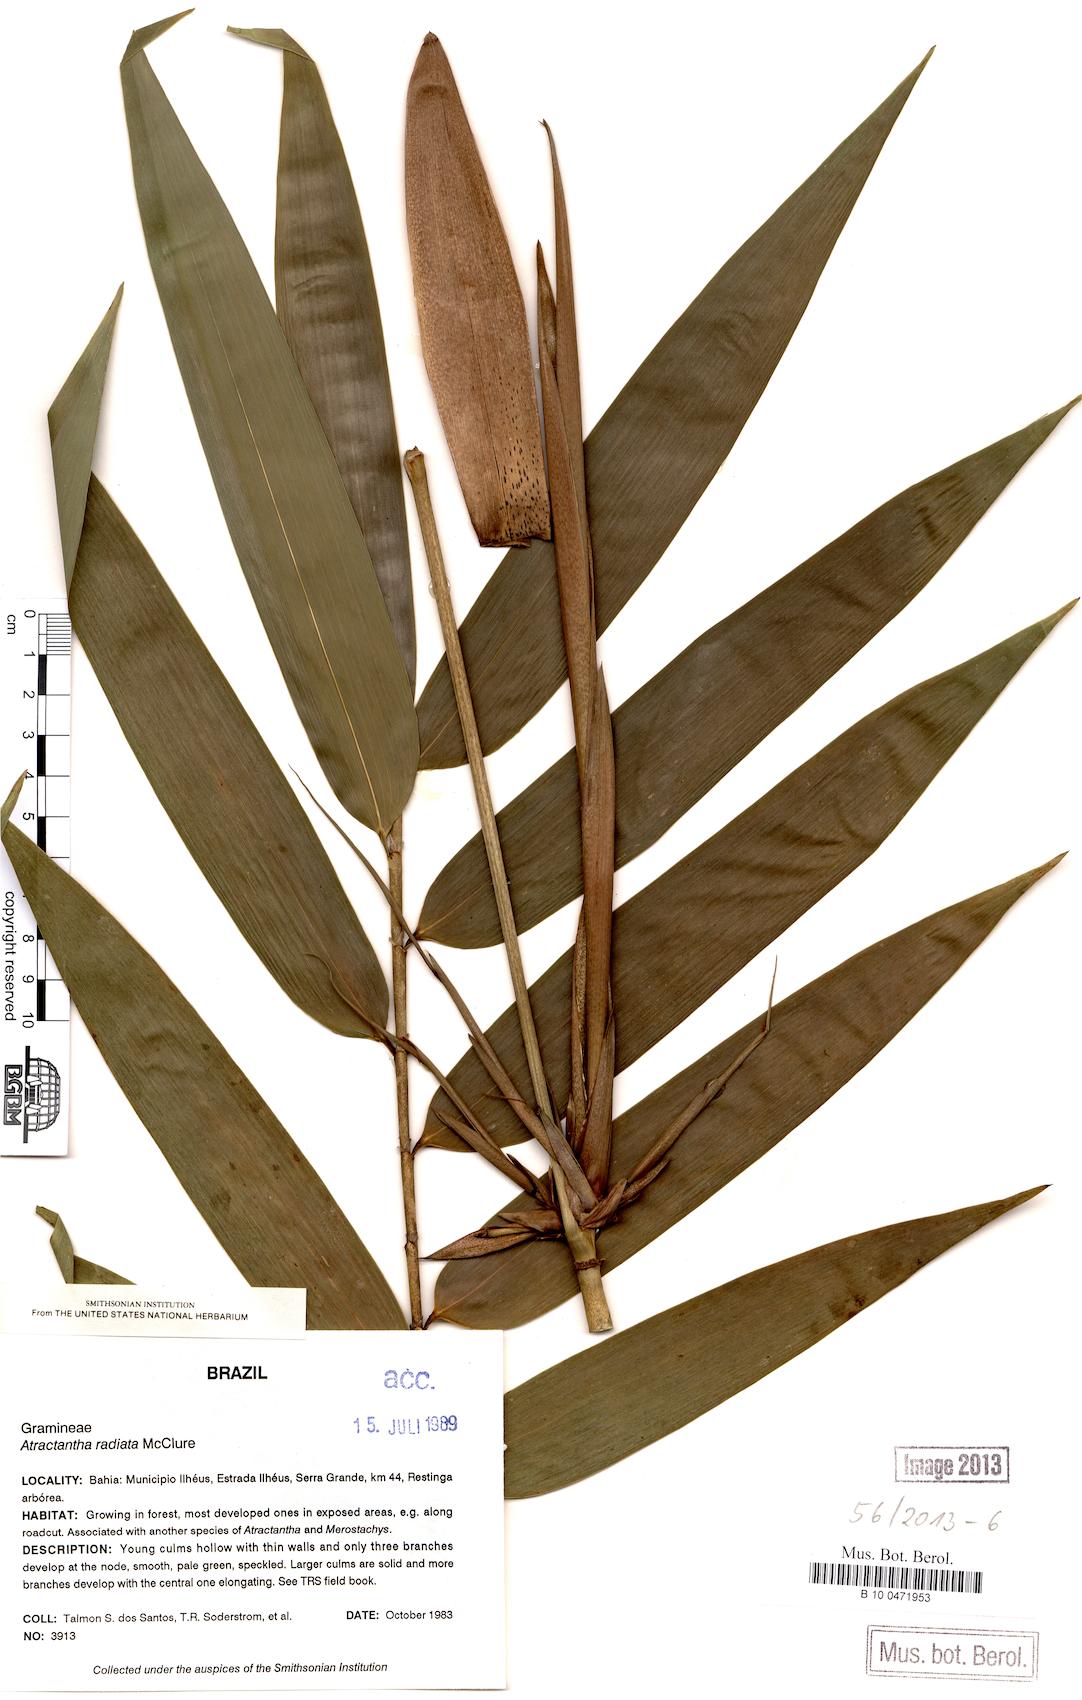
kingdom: Plantae
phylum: Tracheophyta
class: Liliopsida
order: Poales
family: Poaceae
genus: Atractantha
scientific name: Atractantha radiata
